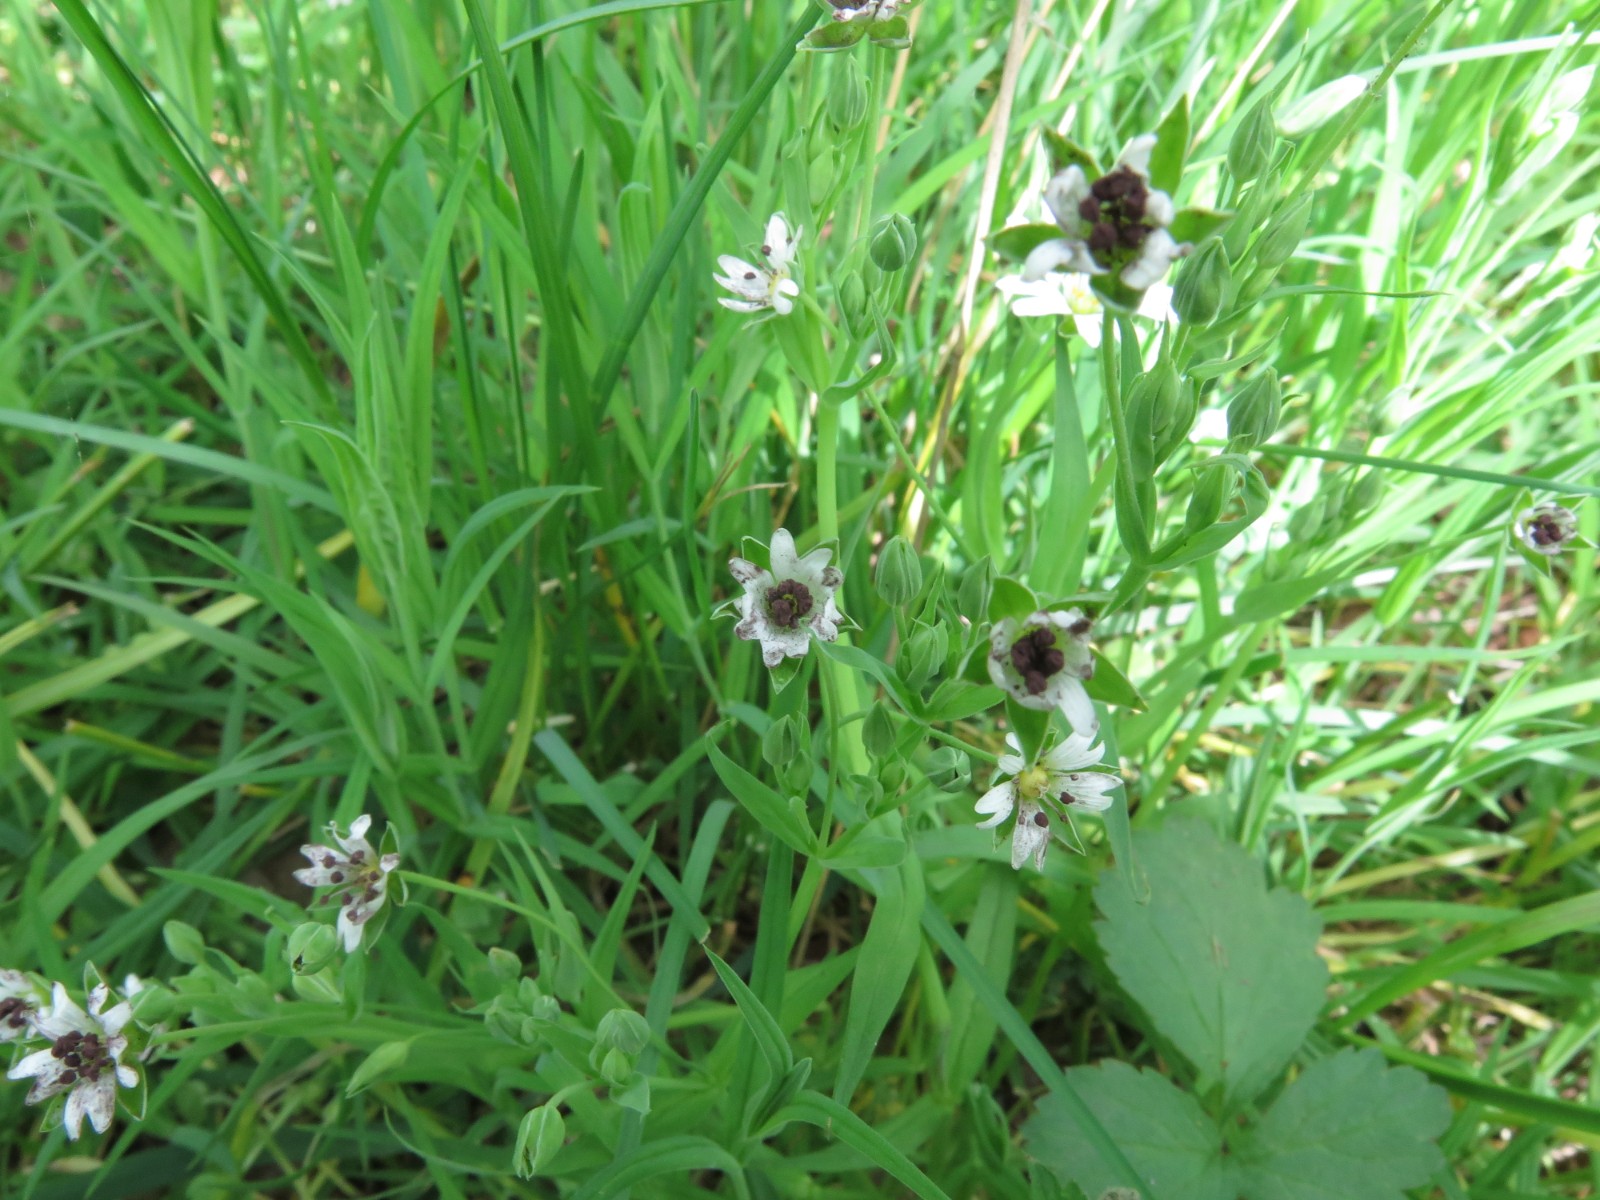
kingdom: Fungi
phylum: Basidiomycota
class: Microbotryomycetes
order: Microbotryales
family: Microbotryaceae
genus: Microbotryum
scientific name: Microbotryum stellariae
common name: fladstjerne-støvbladrust
